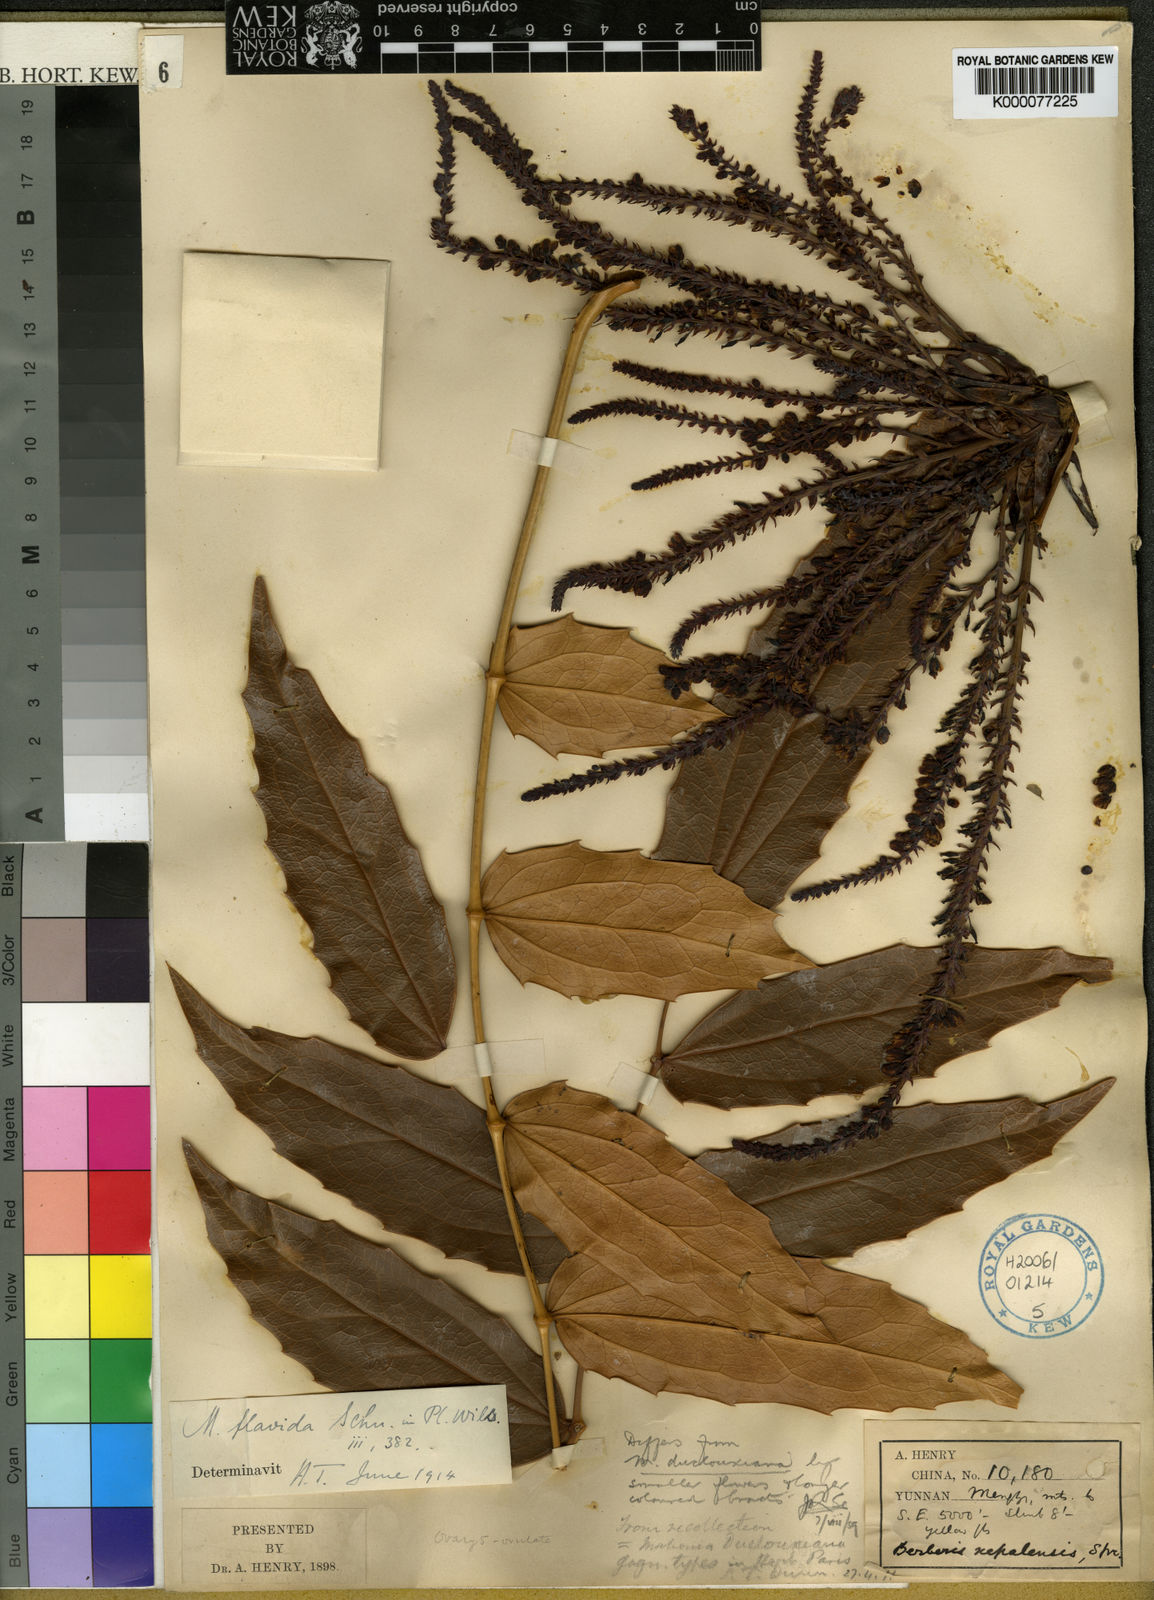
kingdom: Plantae
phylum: Tracheophyta
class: Magnoliopsida
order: Ranunculales
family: Berberidaceae
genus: Mahonia
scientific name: Mahonia napaulensis
